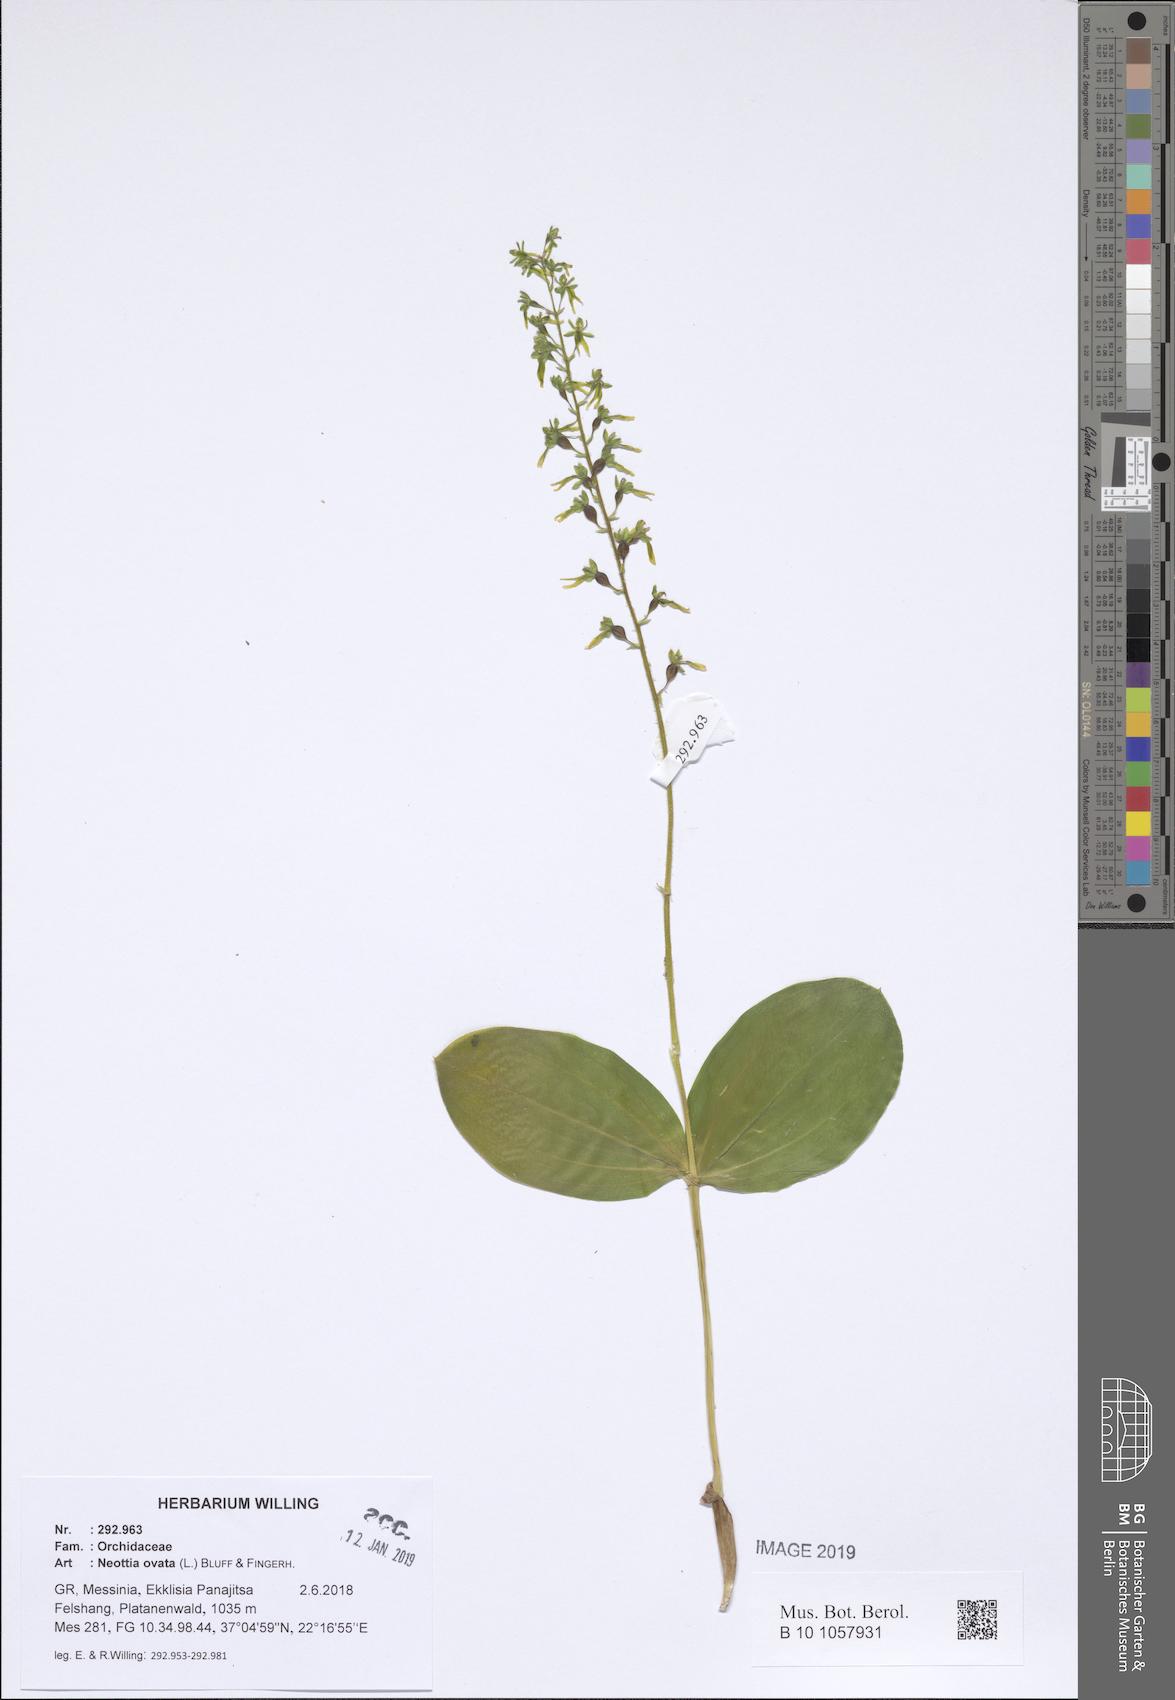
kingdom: Plantae
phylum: Tracheophyta
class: Liliopsida
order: Asparagales
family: Orchidaceae
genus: Neottia
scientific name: Neottia ovata
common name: Common twayblade
